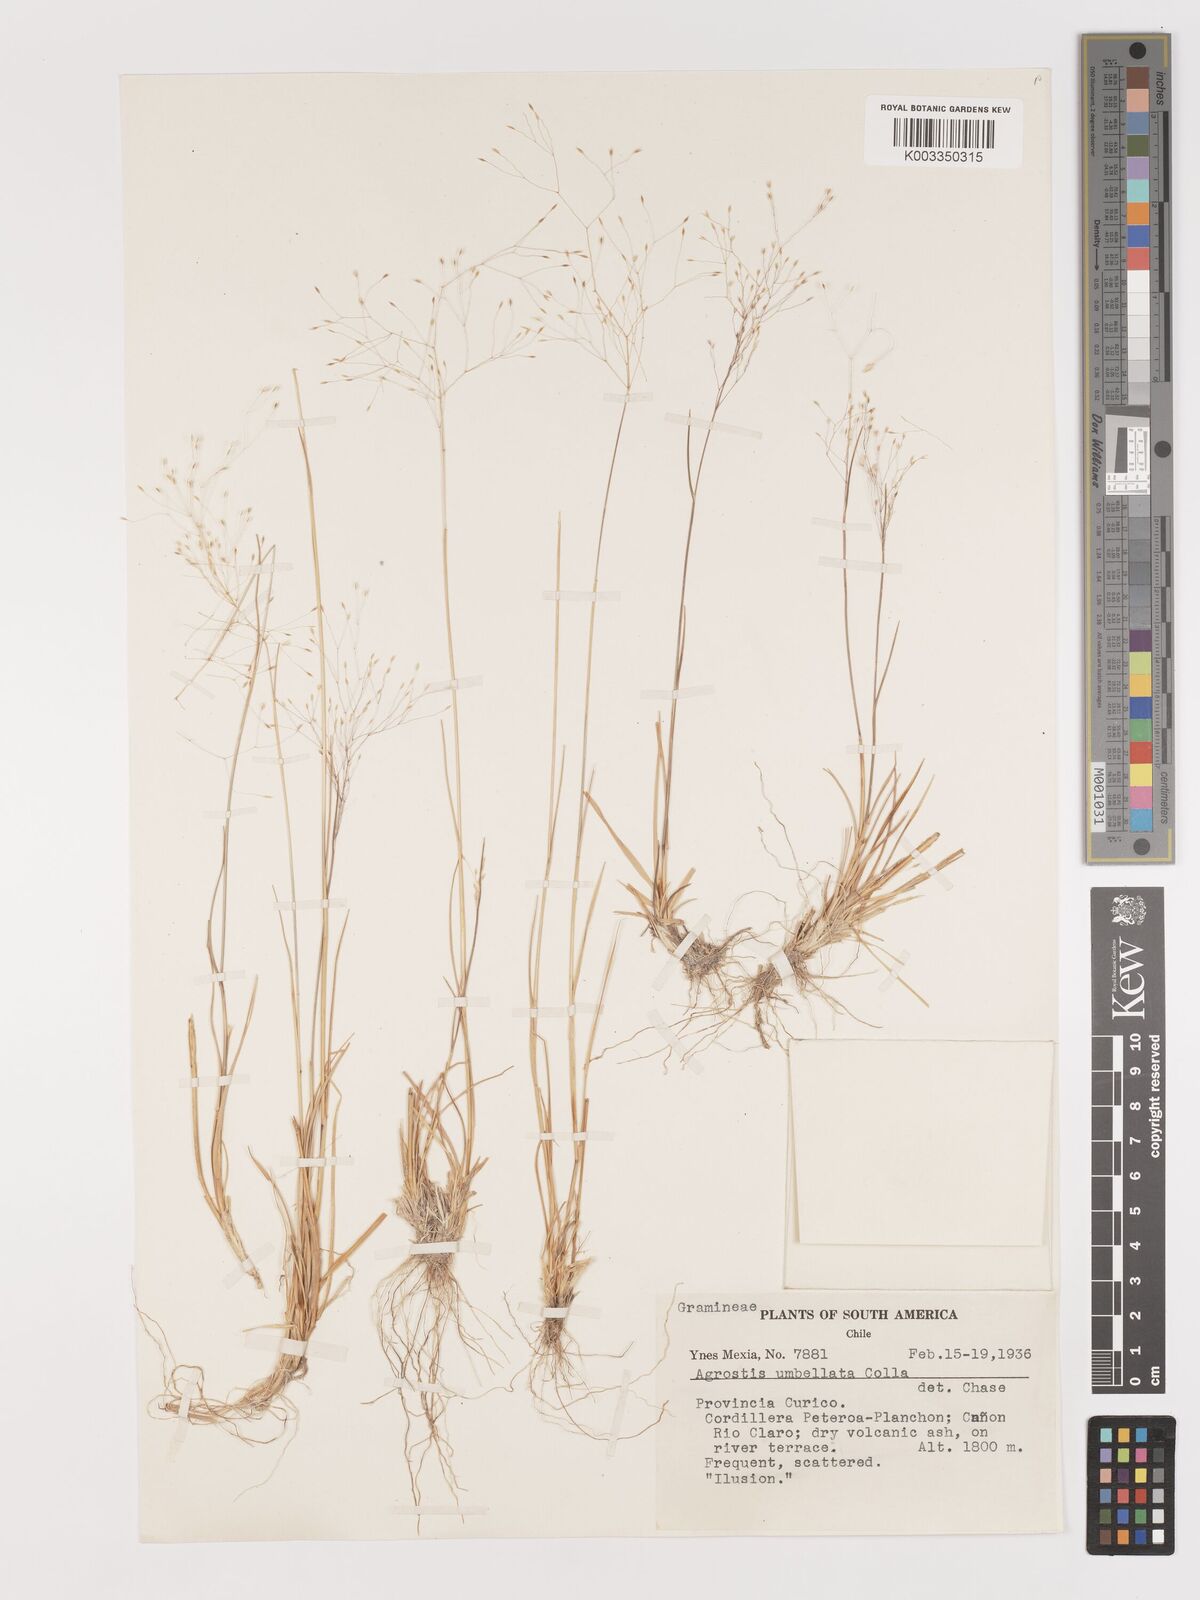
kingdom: Plantae
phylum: Tracheophyta
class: Liliopsida
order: Poales
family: Poaceae
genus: Agrostis
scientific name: Agrostis umbellata
